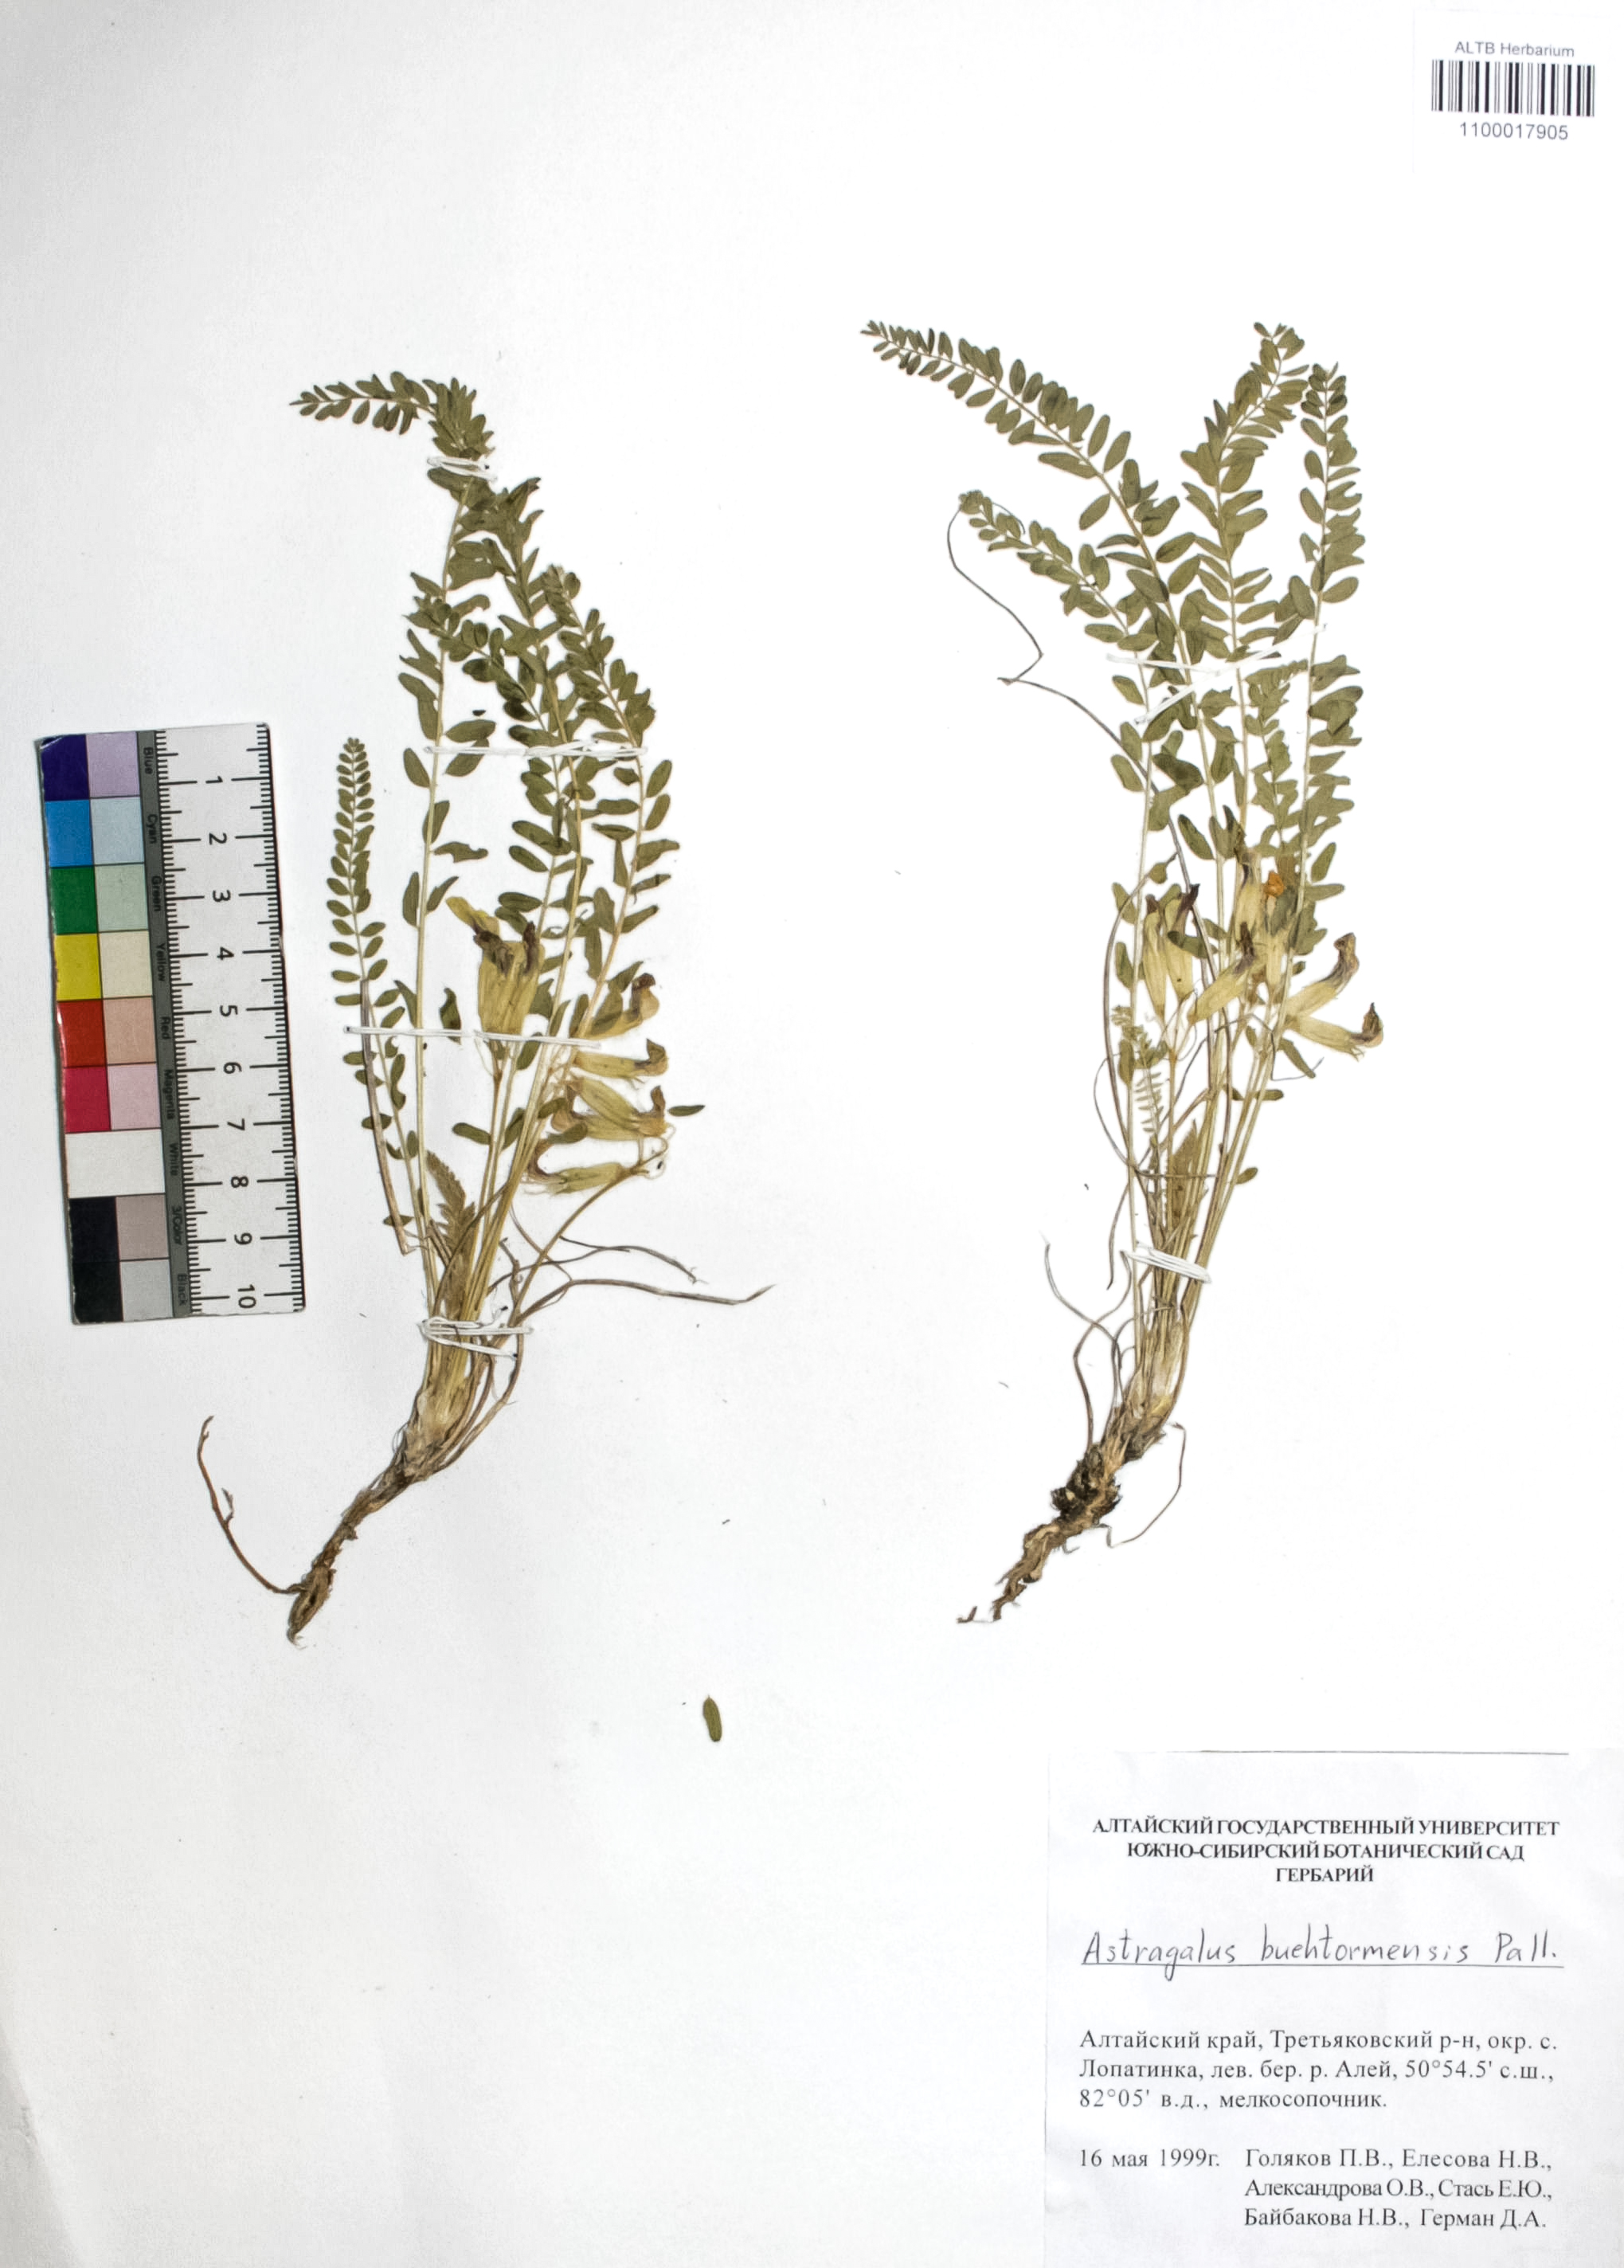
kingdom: Plantae
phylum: Tracheophyta
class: Magnoliopsida
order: Fabales
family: Fabaceae
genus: Astragalus
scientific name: Astragalus buchtormensis
